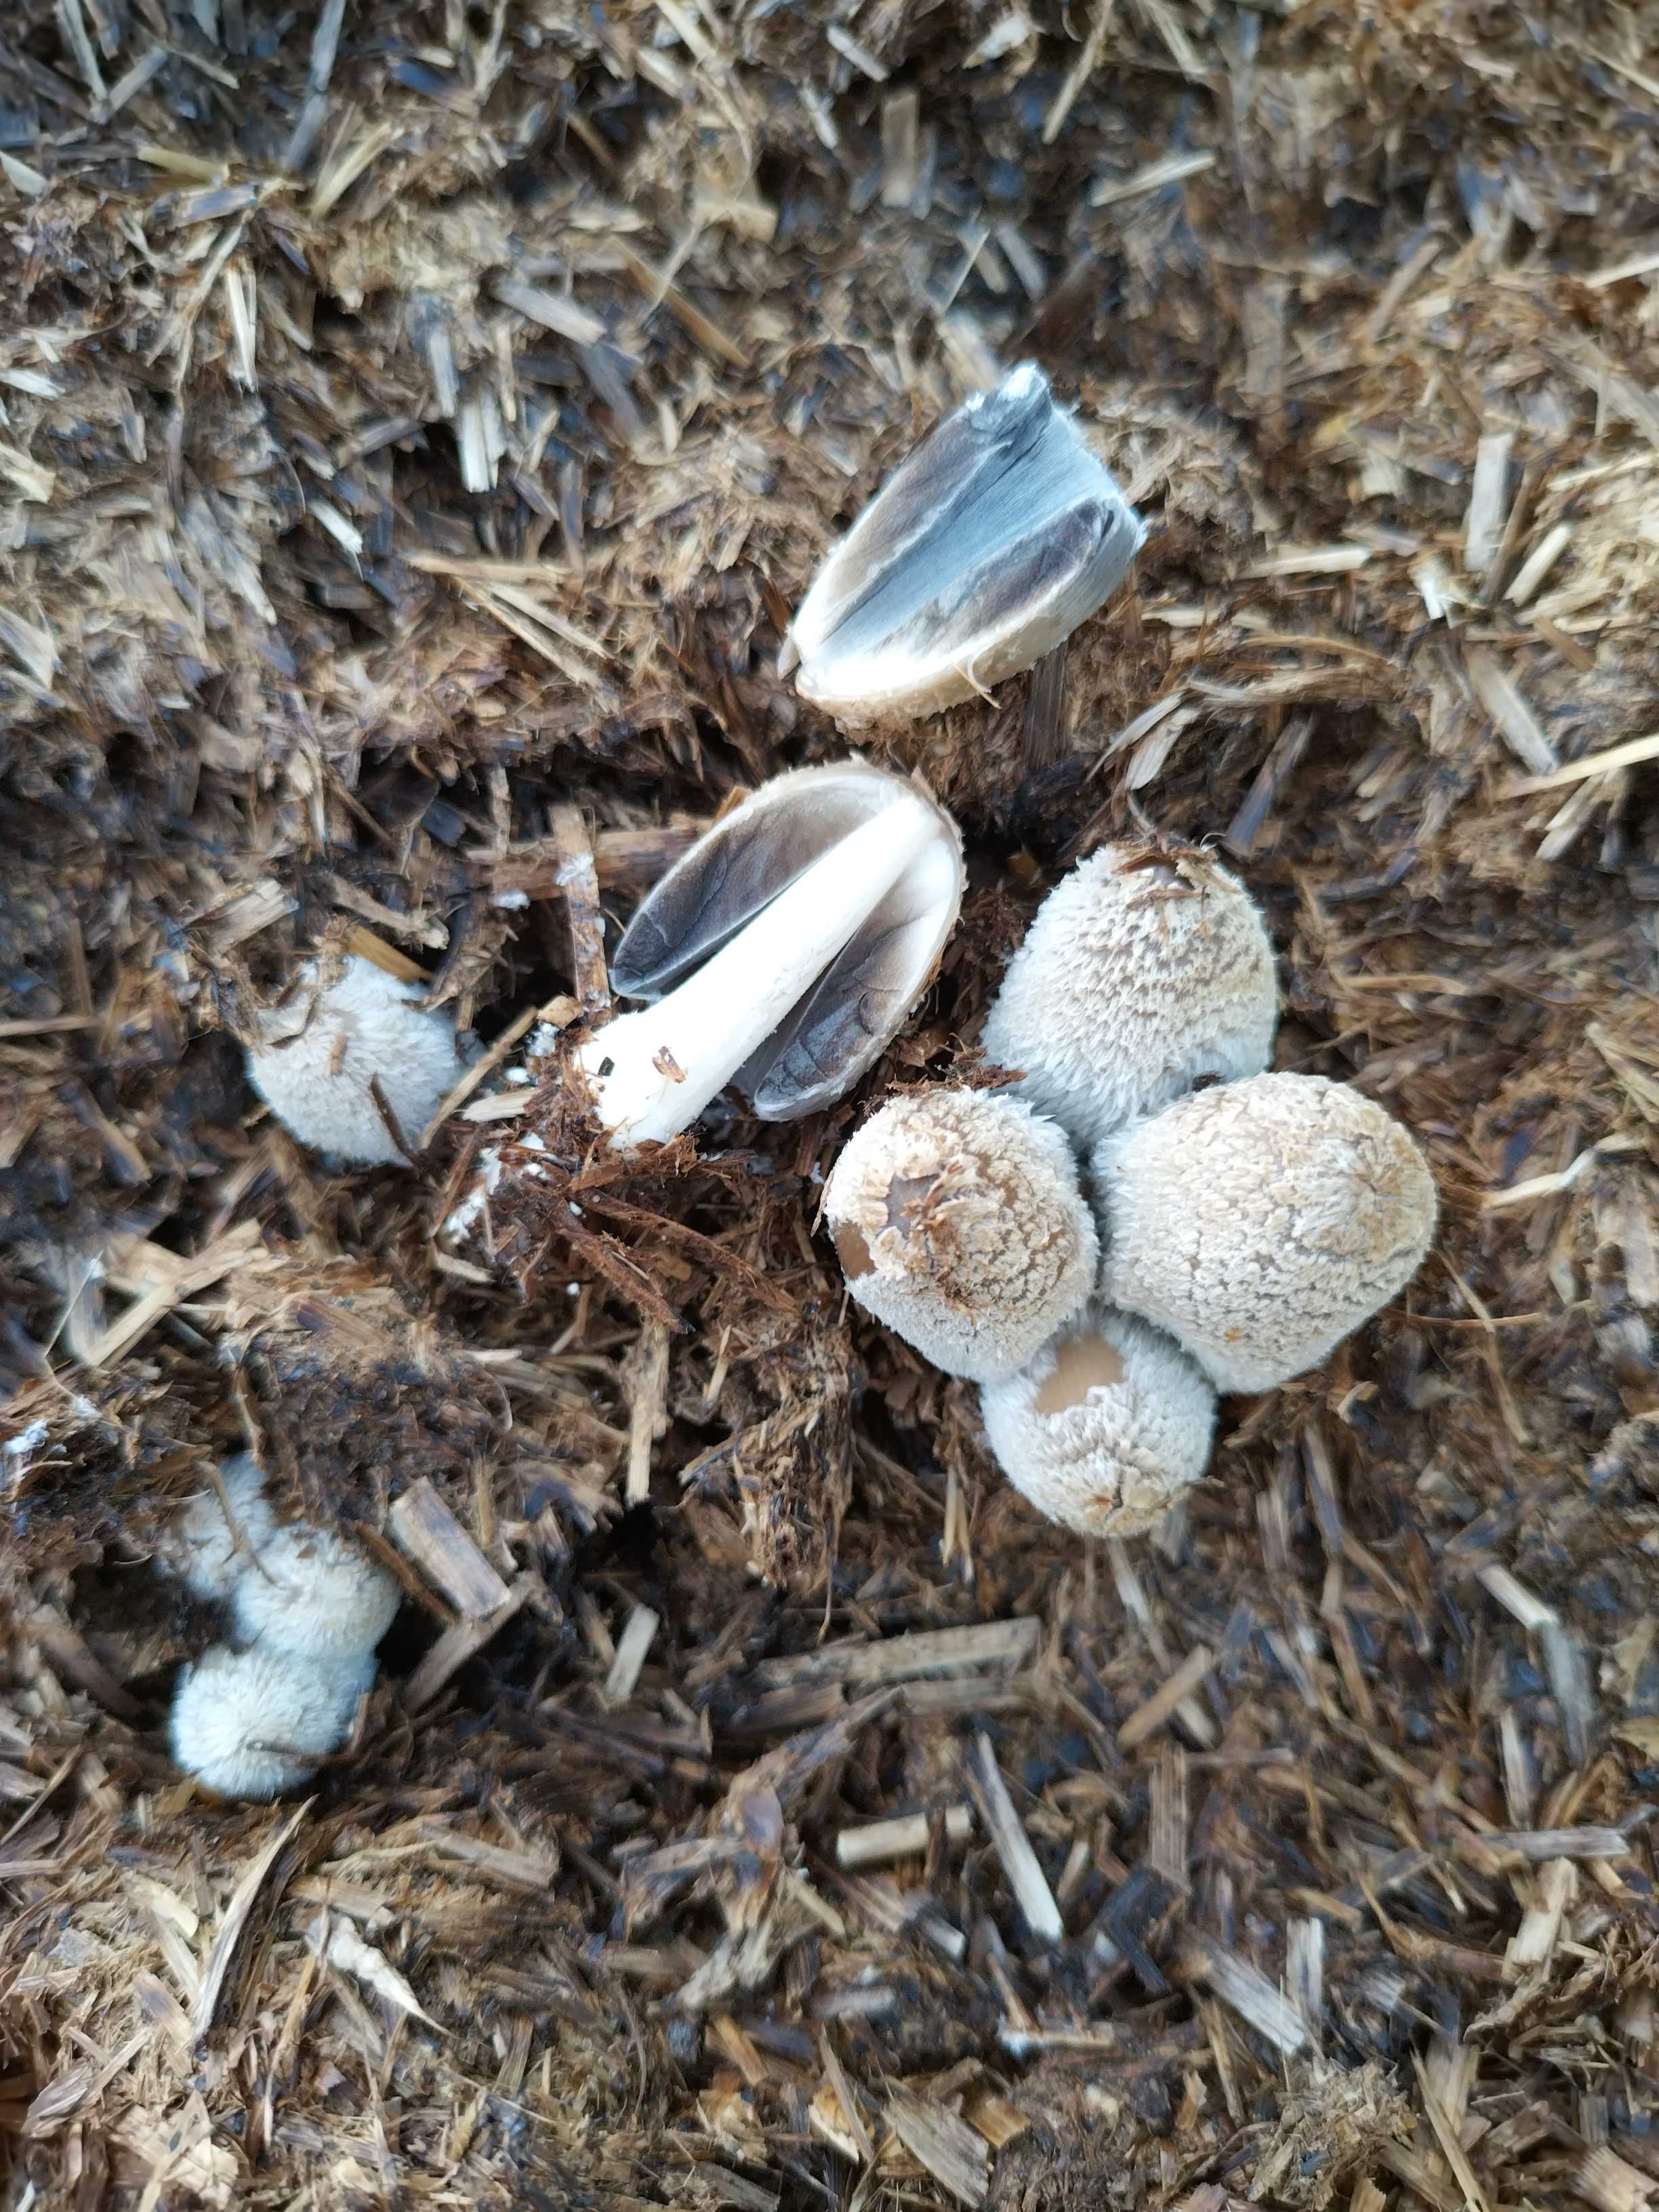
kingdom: Fungi
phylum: Basidiomycota
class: Agaricomycetes
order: Agaricales
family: Psathyrellaceae
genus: Coprinopsis
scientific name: Coprinopsis
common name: blækhat
